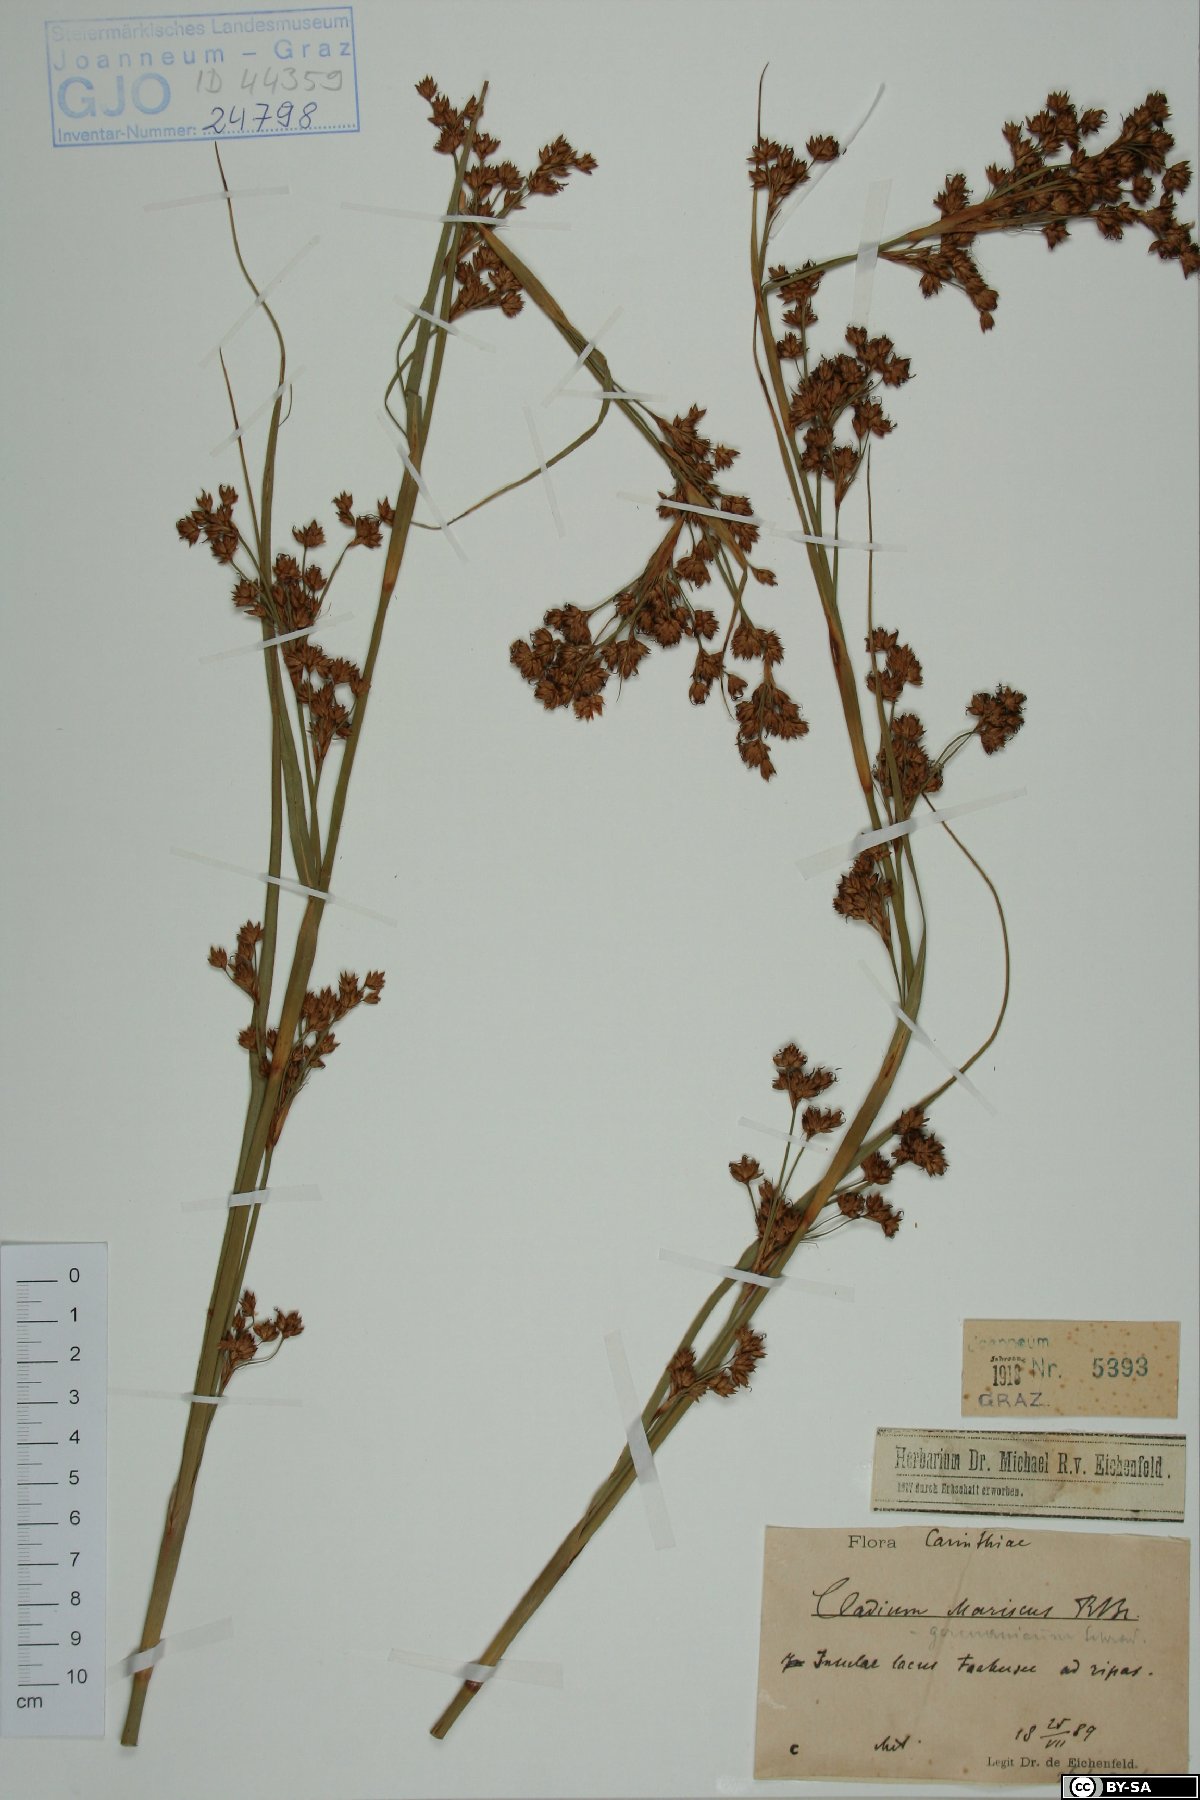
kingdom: Plantae
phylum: Tracheophyta
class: Liliopsida
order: Poales
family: Cyperaceae
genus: Cladium
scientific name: Cladium mariscus
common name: Great fen-sedge
